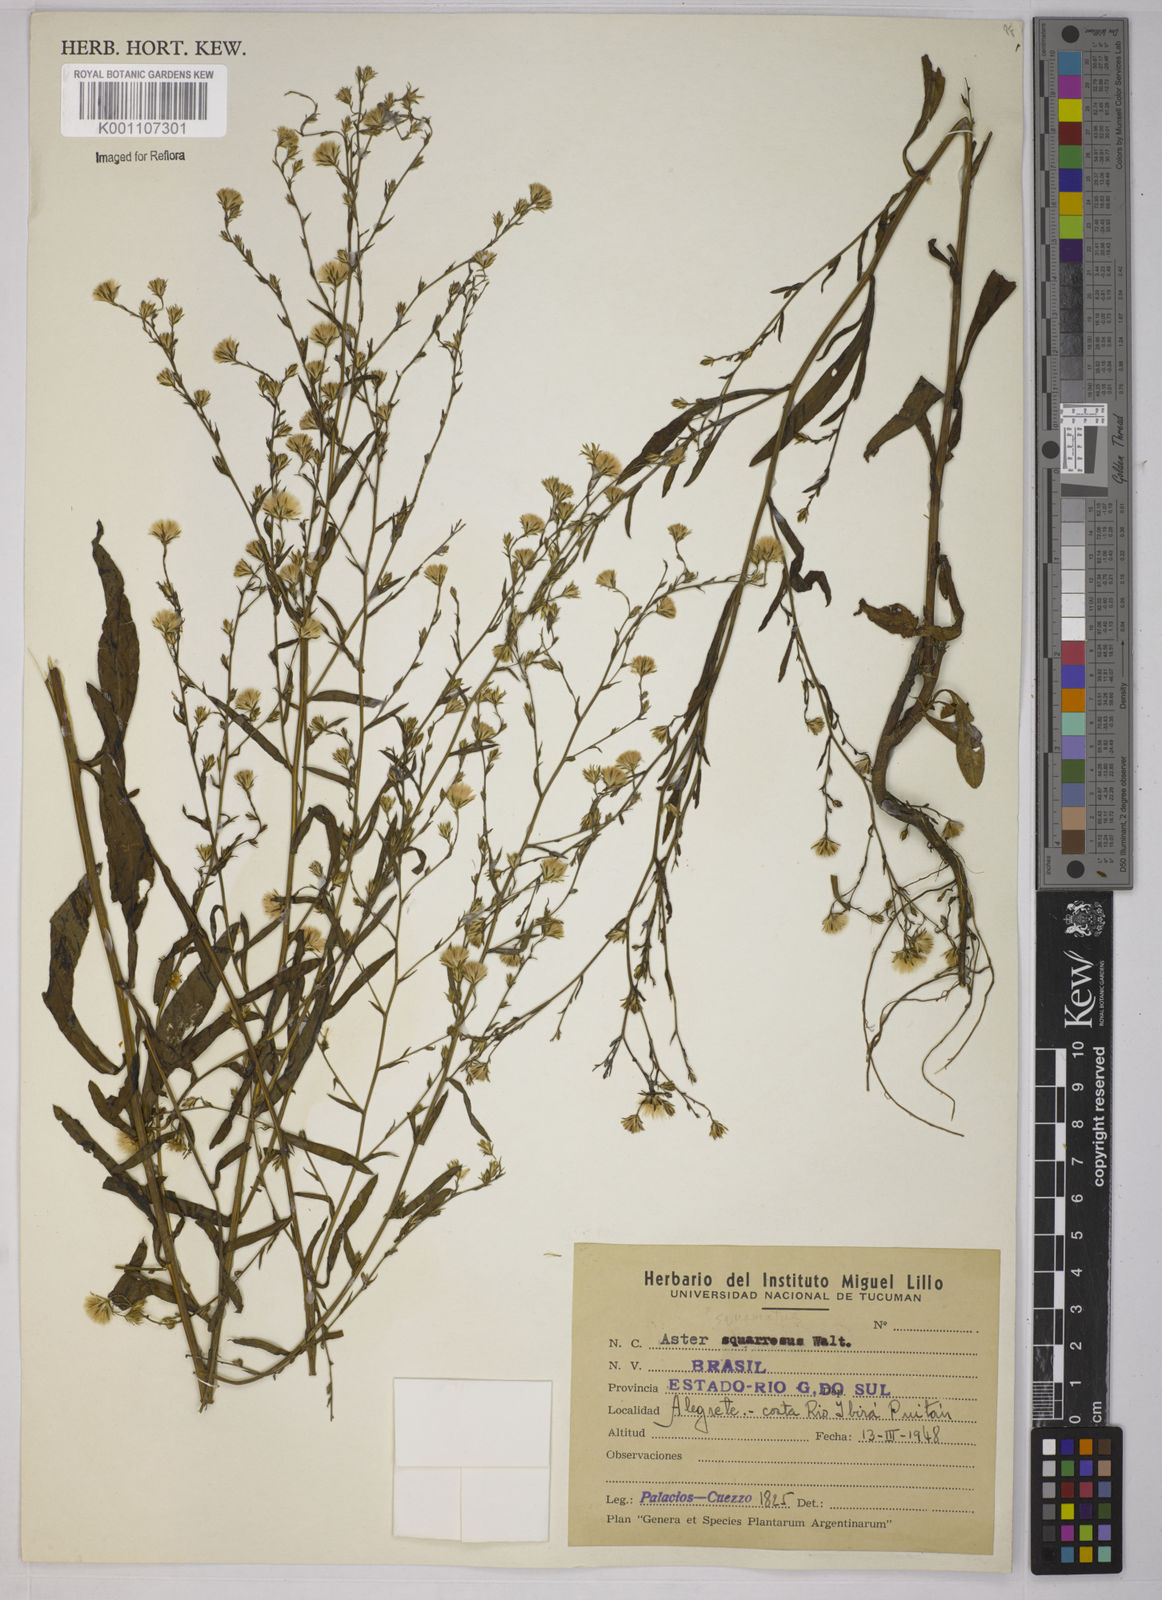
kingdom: Plantae
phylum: Tracheophyta
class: Magnoliopsida
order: Asterales
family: Asteraceae
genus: Symphyotrichum
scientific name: Symphyotrichum
